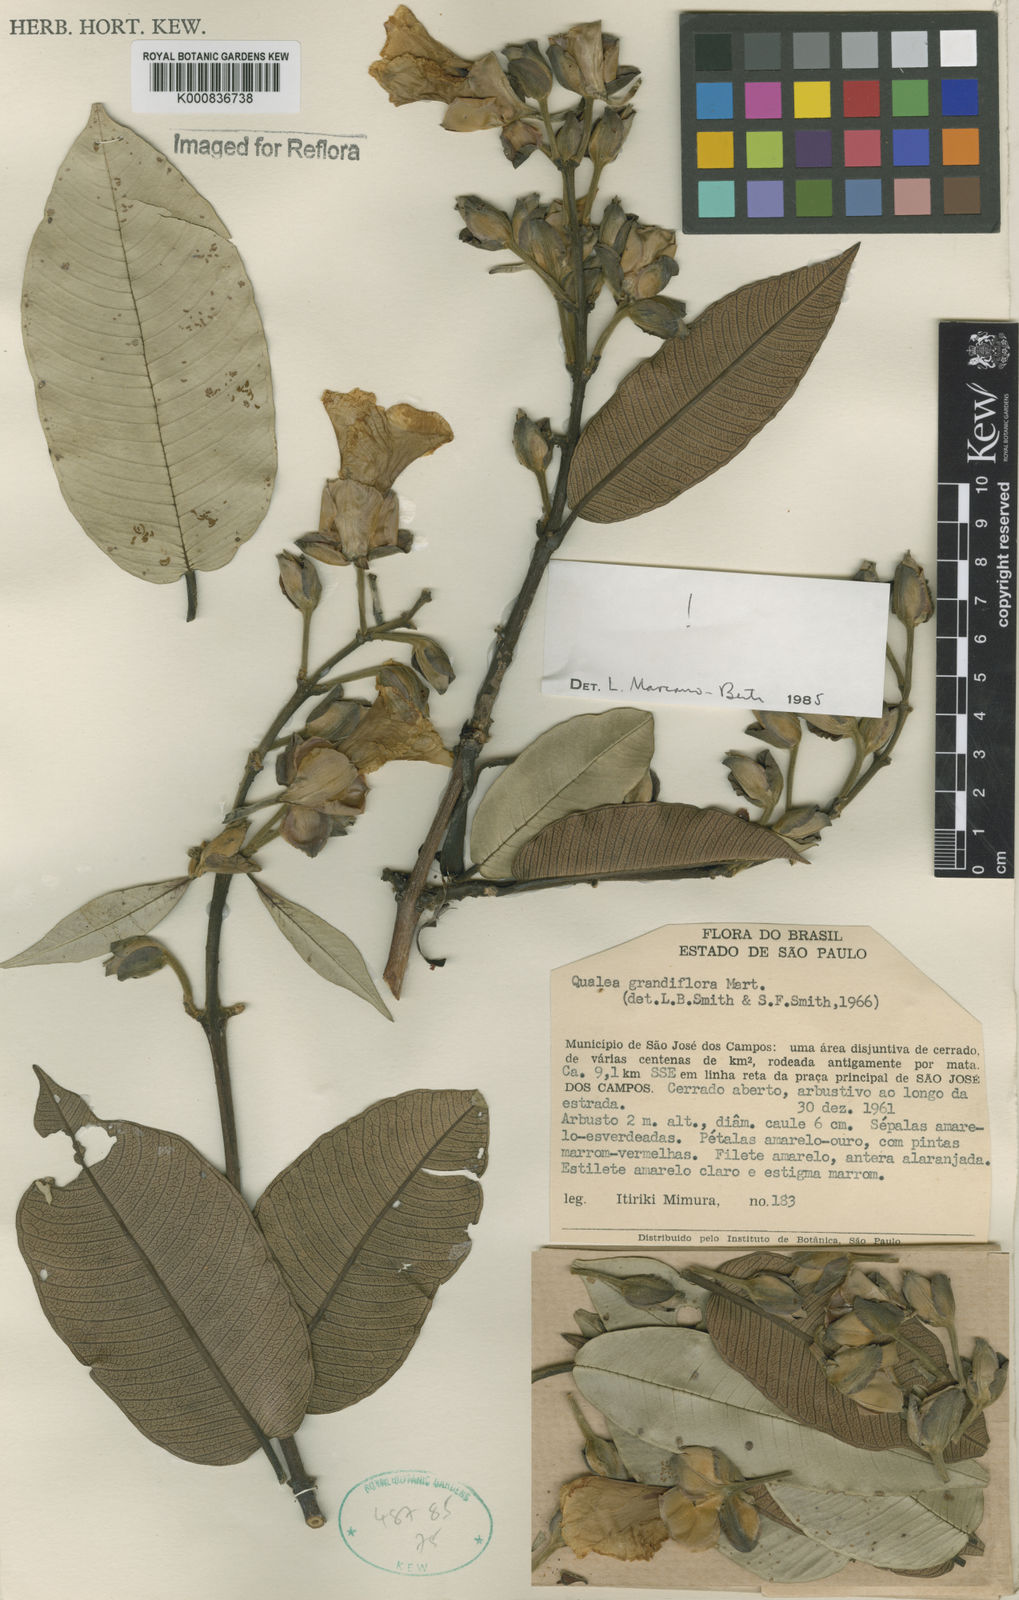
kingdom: Plantae
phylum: Tracheophyta
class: Magnoliopsida
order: Myrtales
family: Vochysiaceae
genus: Qualea
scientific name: Qualea grandiflora
